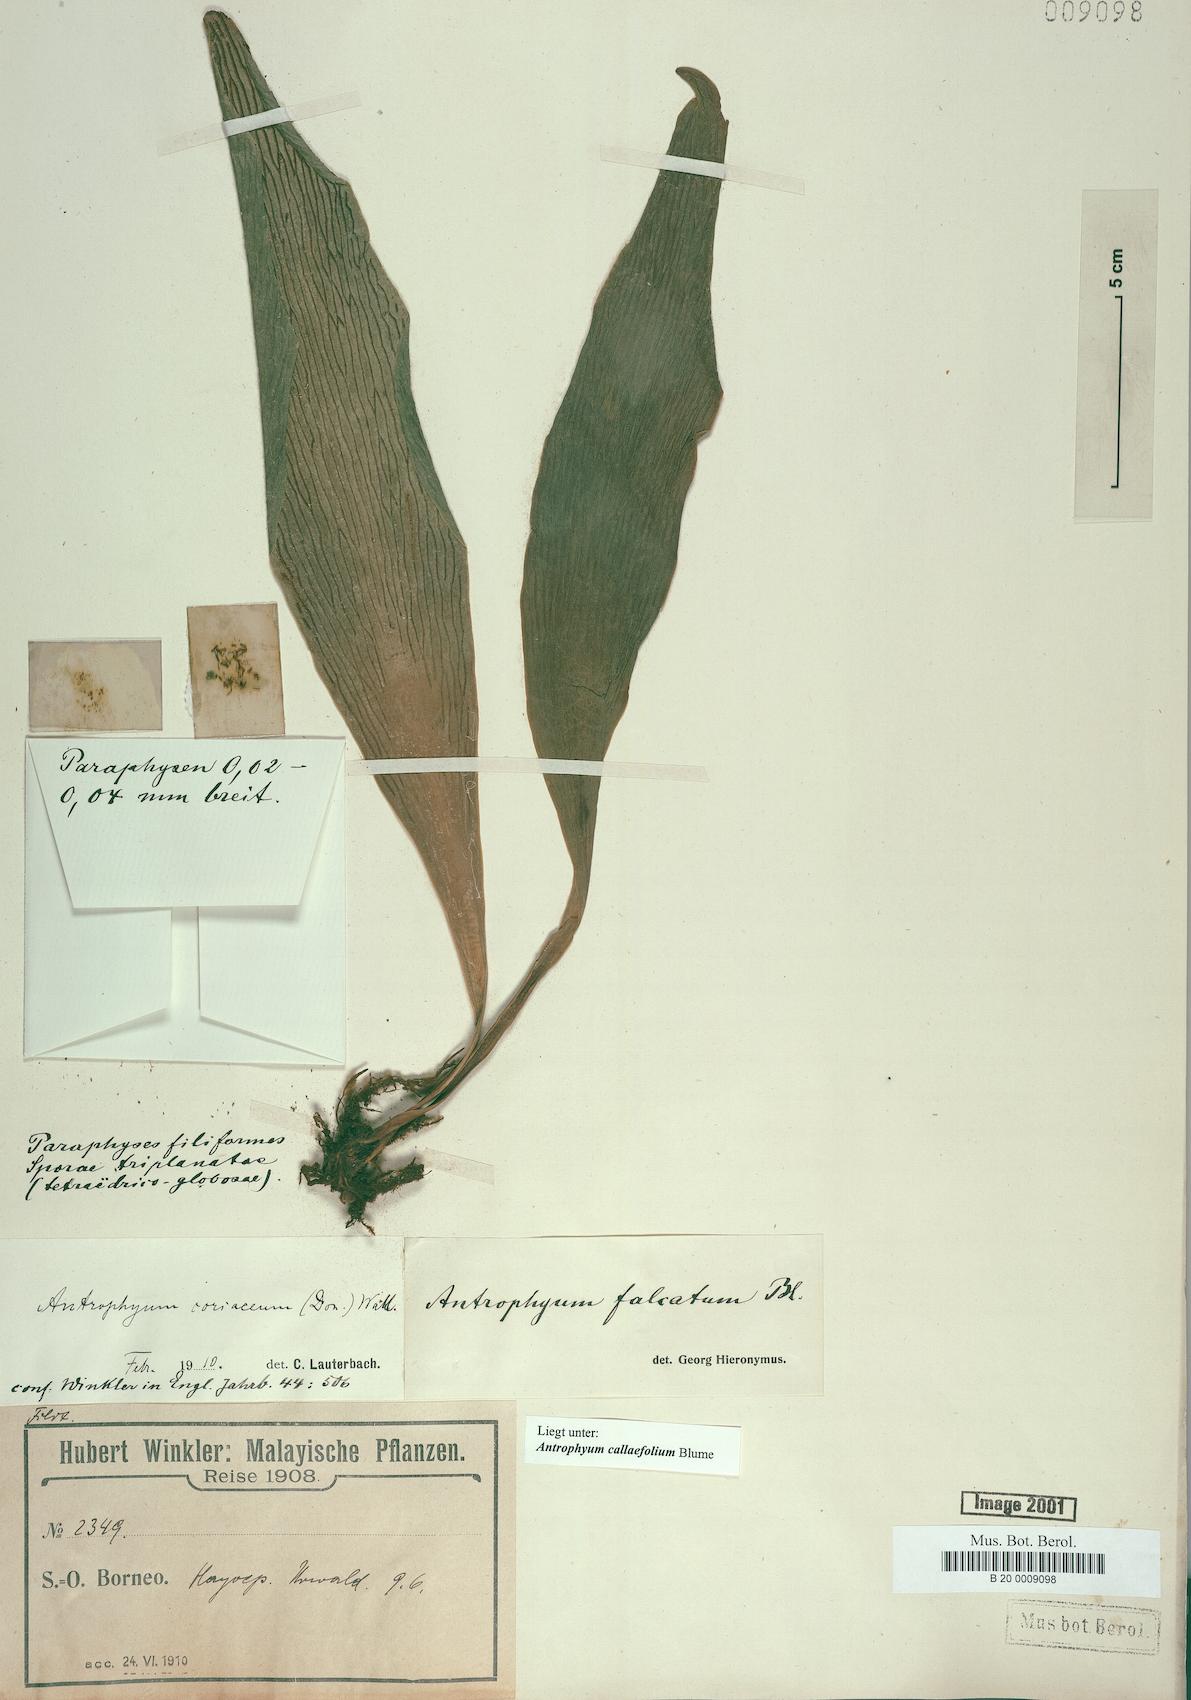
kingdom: Plantae
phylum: Tracheophyta
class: Polypodiopsida
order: Polypodiales
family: Pteridaceae
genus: Antrophyum
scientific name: Antrophyum callifolium
